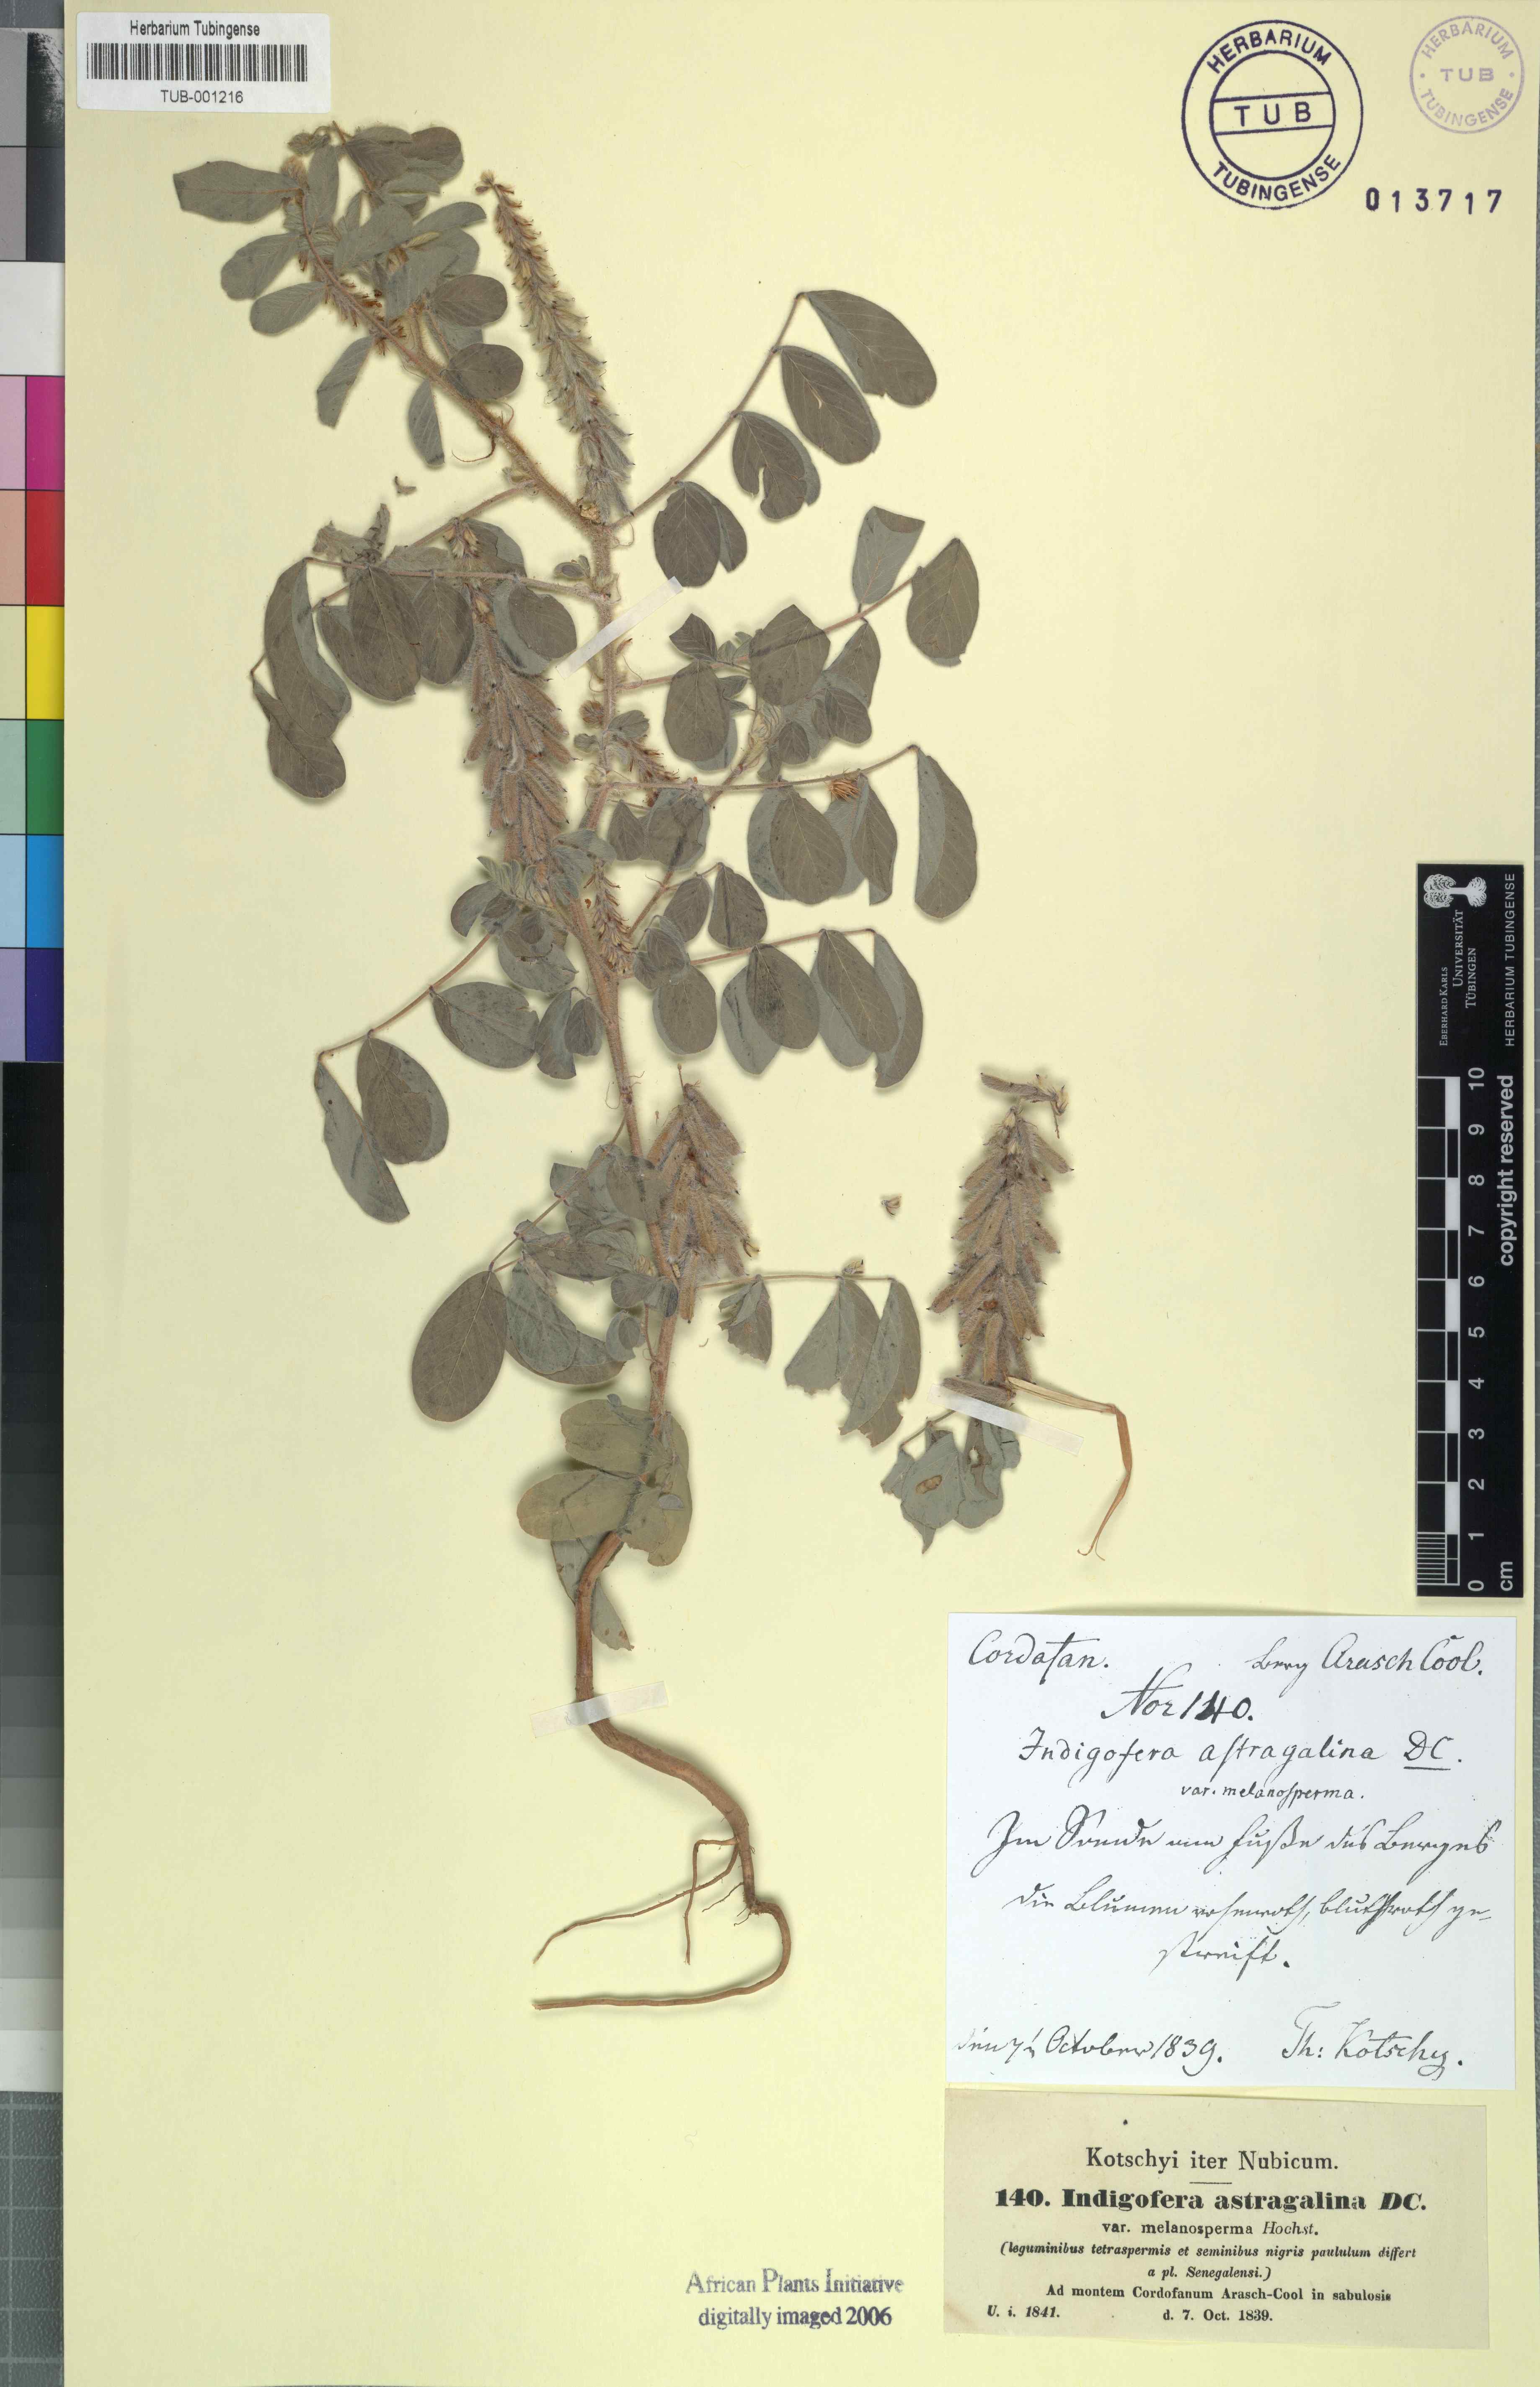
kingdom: Plantae
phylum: Tracheophyta
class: Magnoliopsida
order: Fabales
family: Fabaceae
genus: Indigofera
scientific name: Indigofera astragalina
